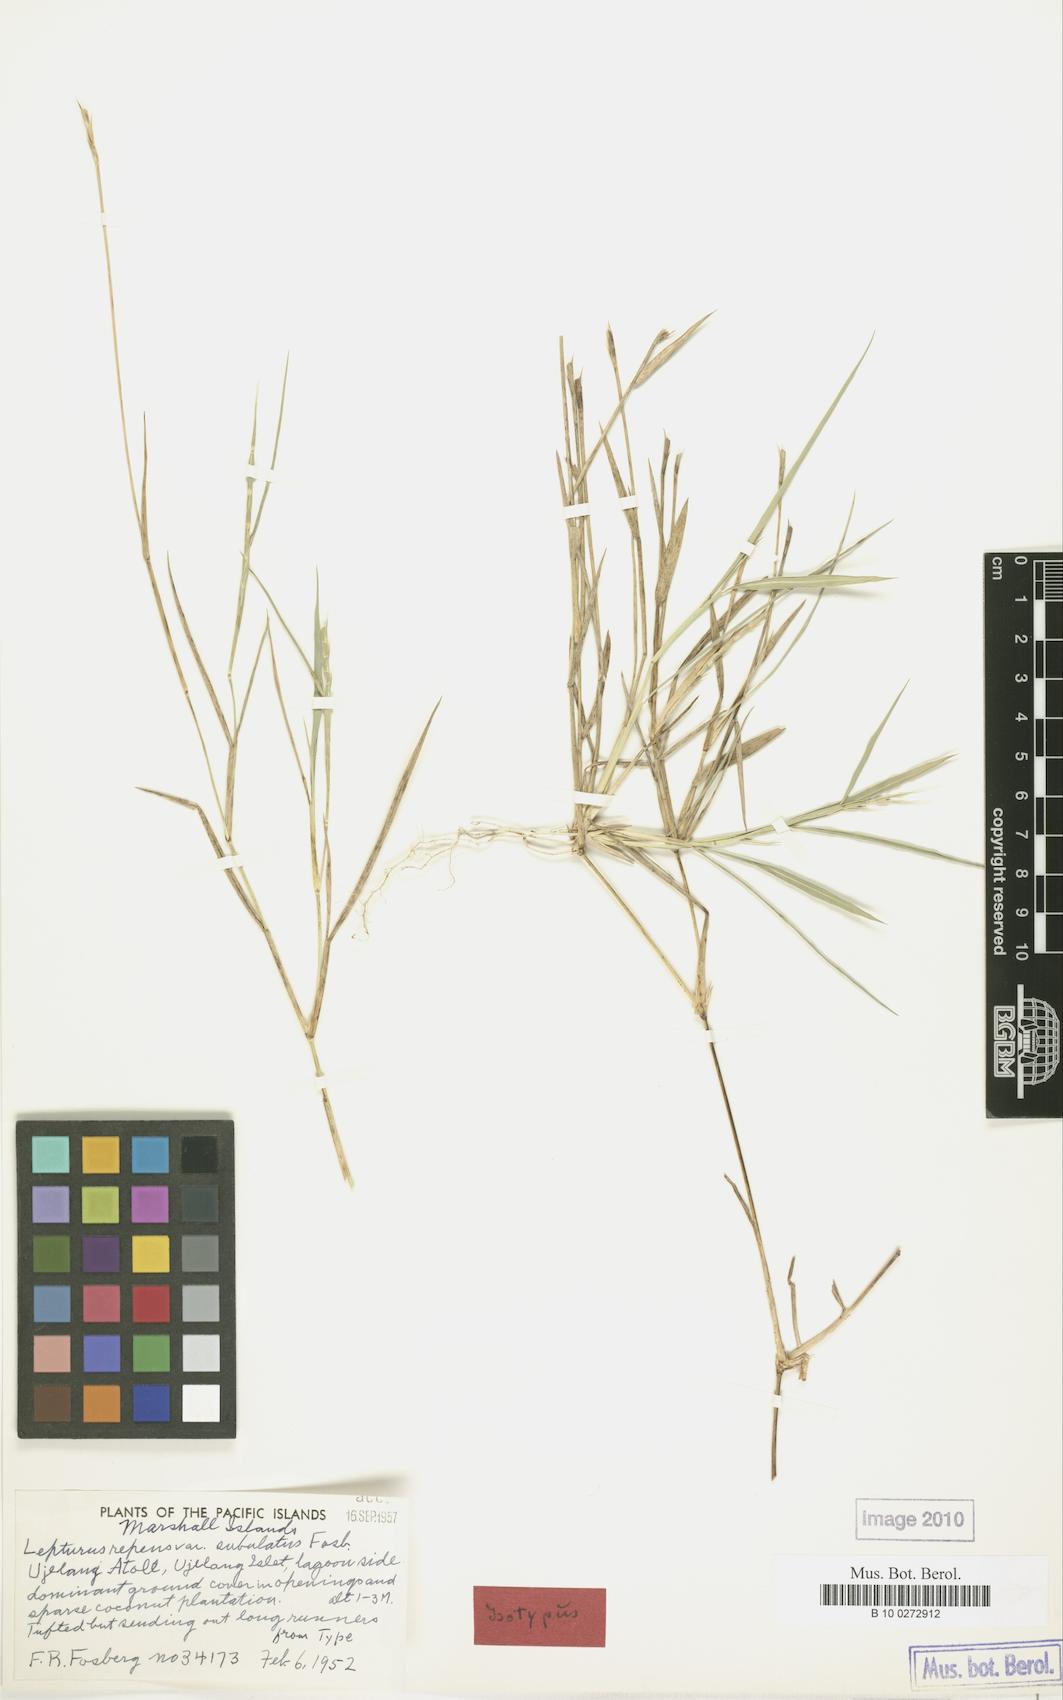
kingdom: Plantae
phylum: Tracheophyta
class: Liliopsida
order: Poales
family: Poaceae
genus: Lepturus
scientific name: Lepturus repens
